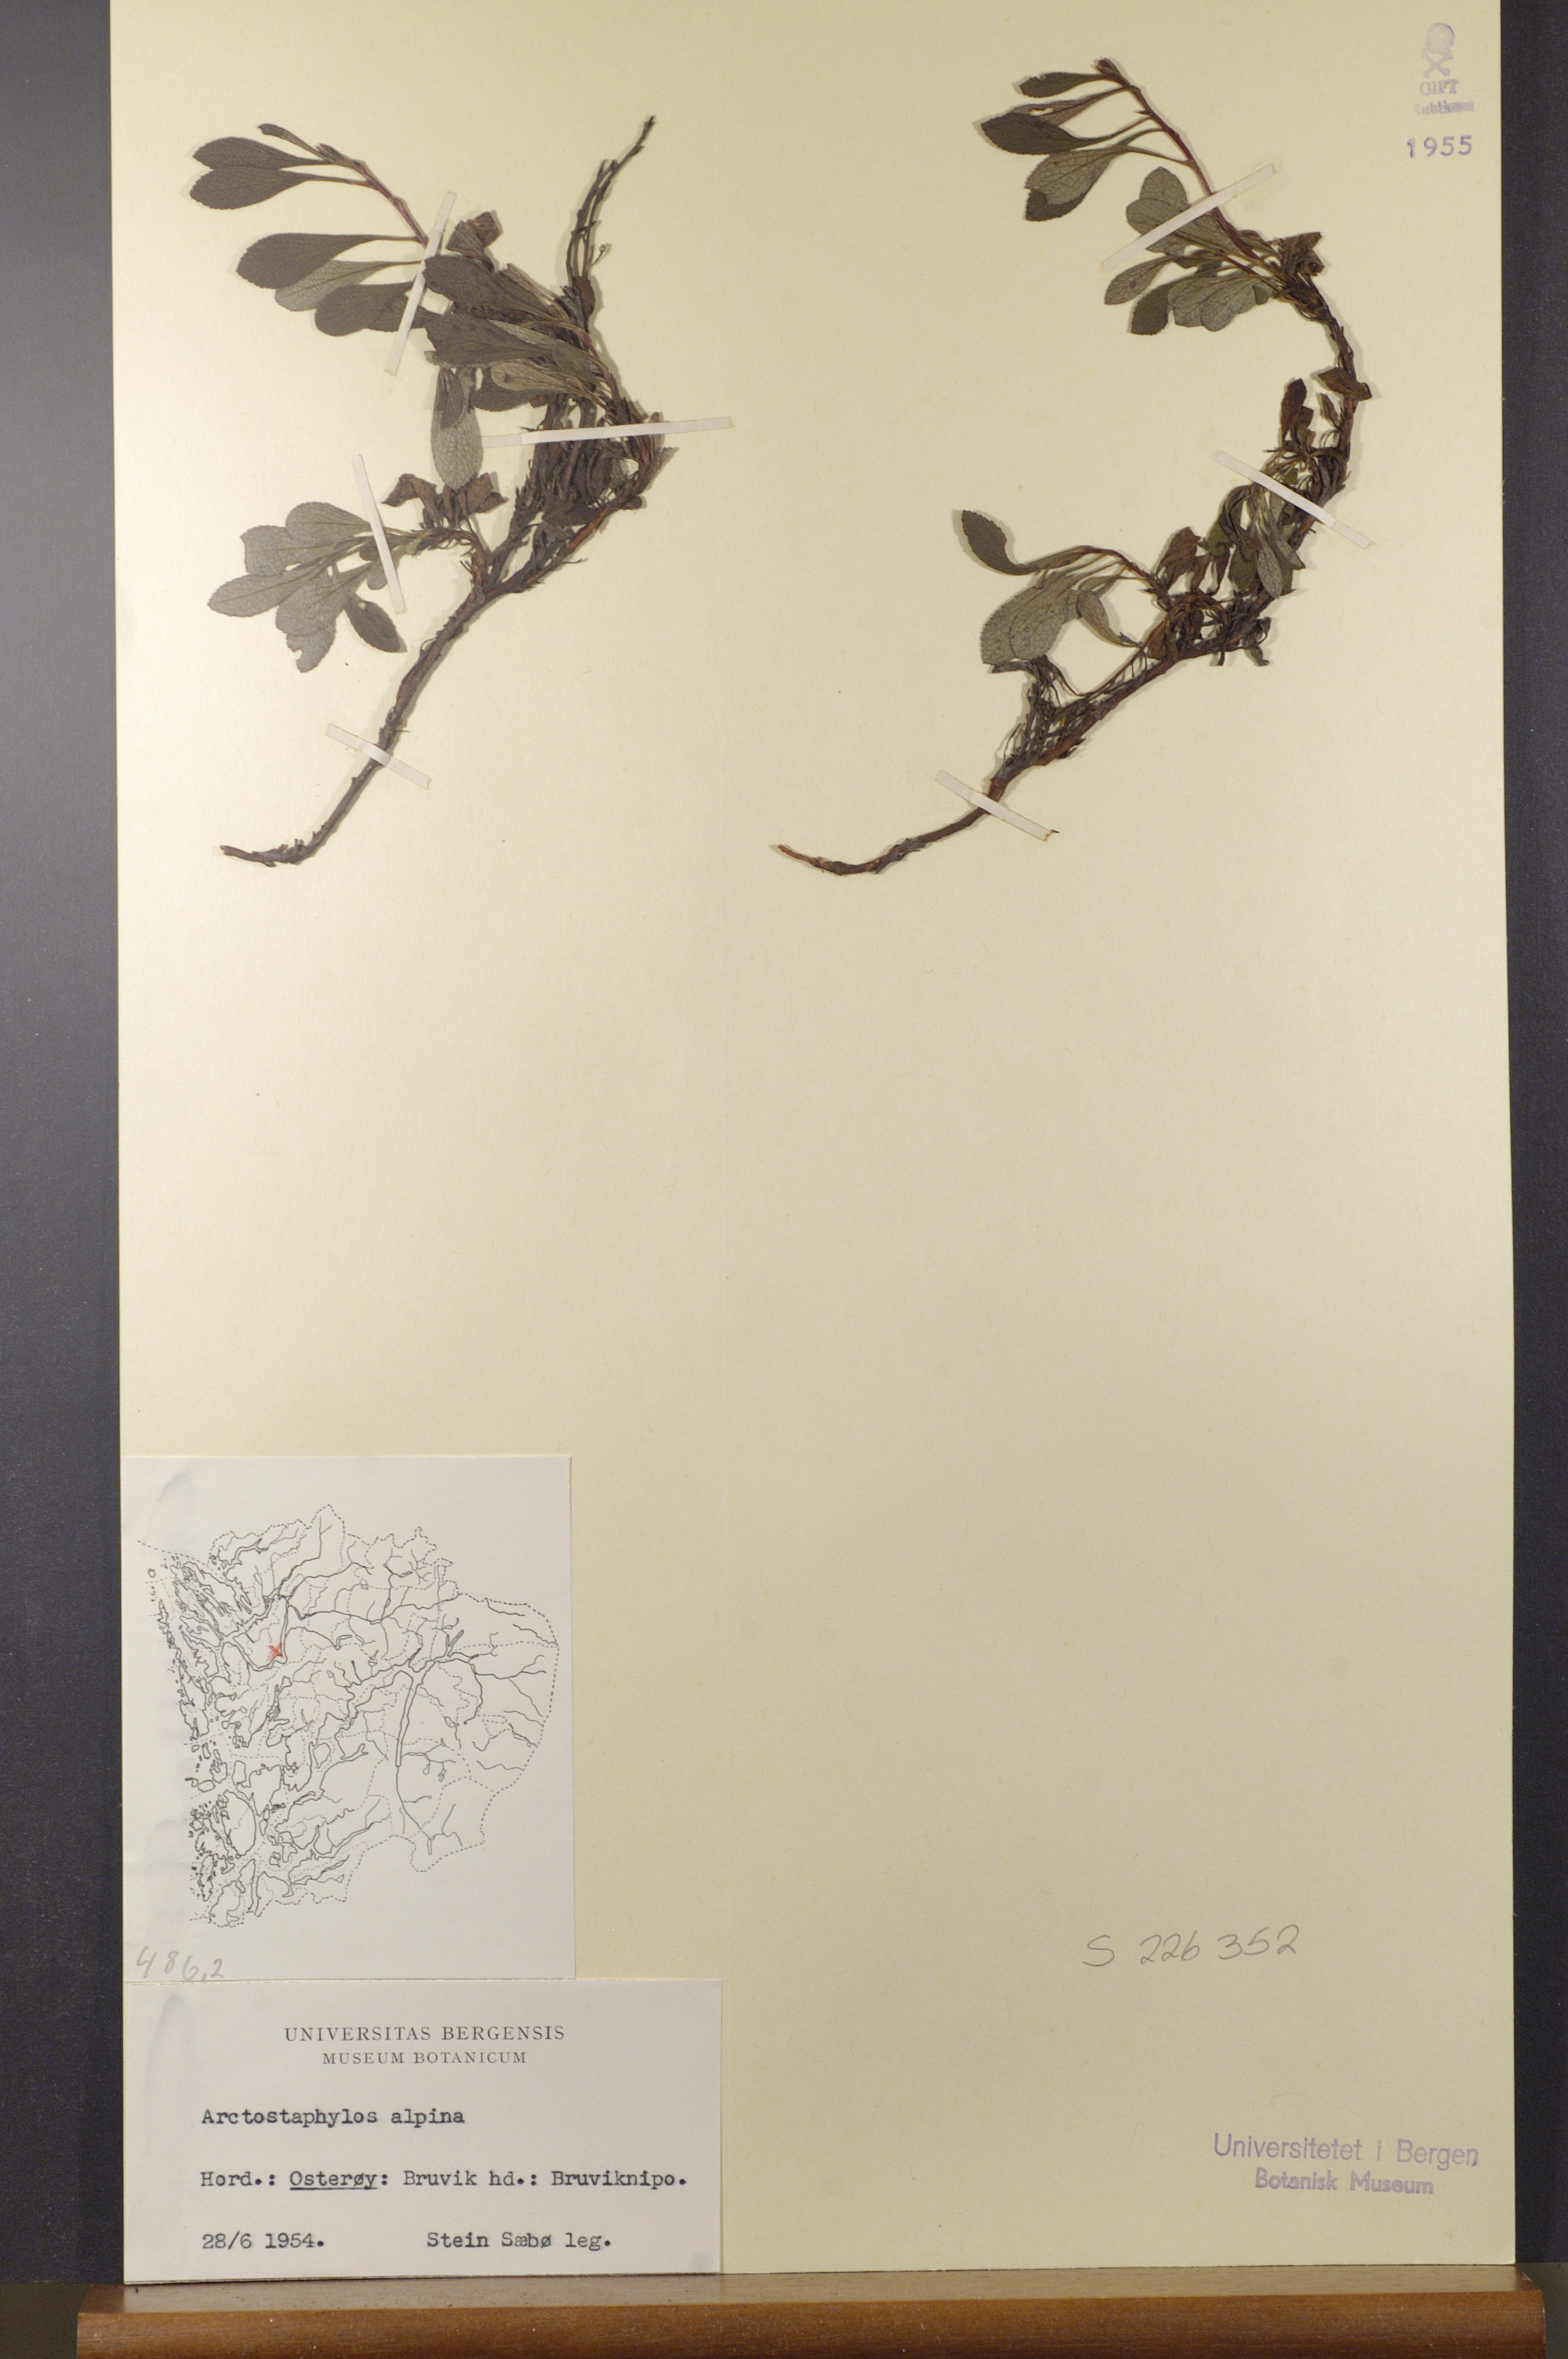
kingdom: Plantae
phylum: Tracheophyta
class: Magnoliopsida
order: Ericales
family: Ericaceae
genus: Arctostaphylos
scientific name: Arctostaphylos alpinus
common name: Alpine bearberry
